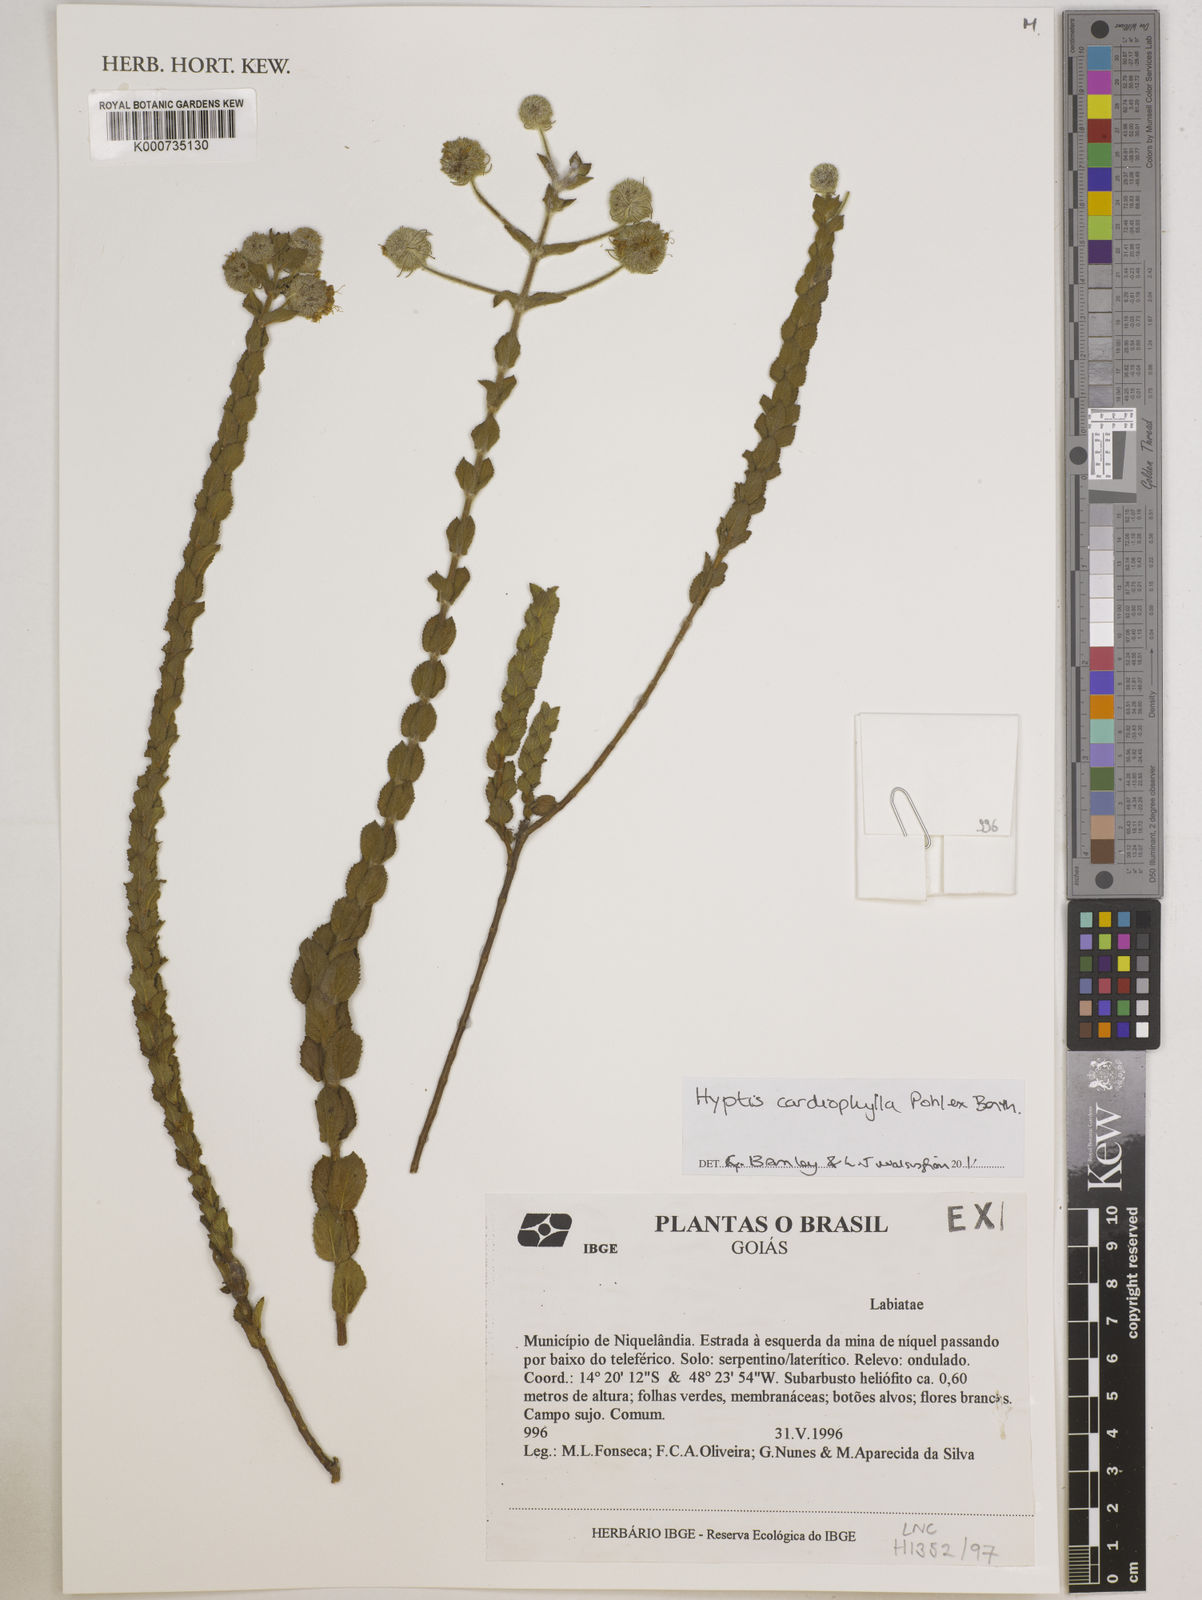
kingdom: Plantae
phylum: Tracheophyta
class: Magnoliopsida
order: Lamiales
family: Lamiaceae
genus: Cyanocephalus
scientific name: Cyanocephalus cardiophyllus
